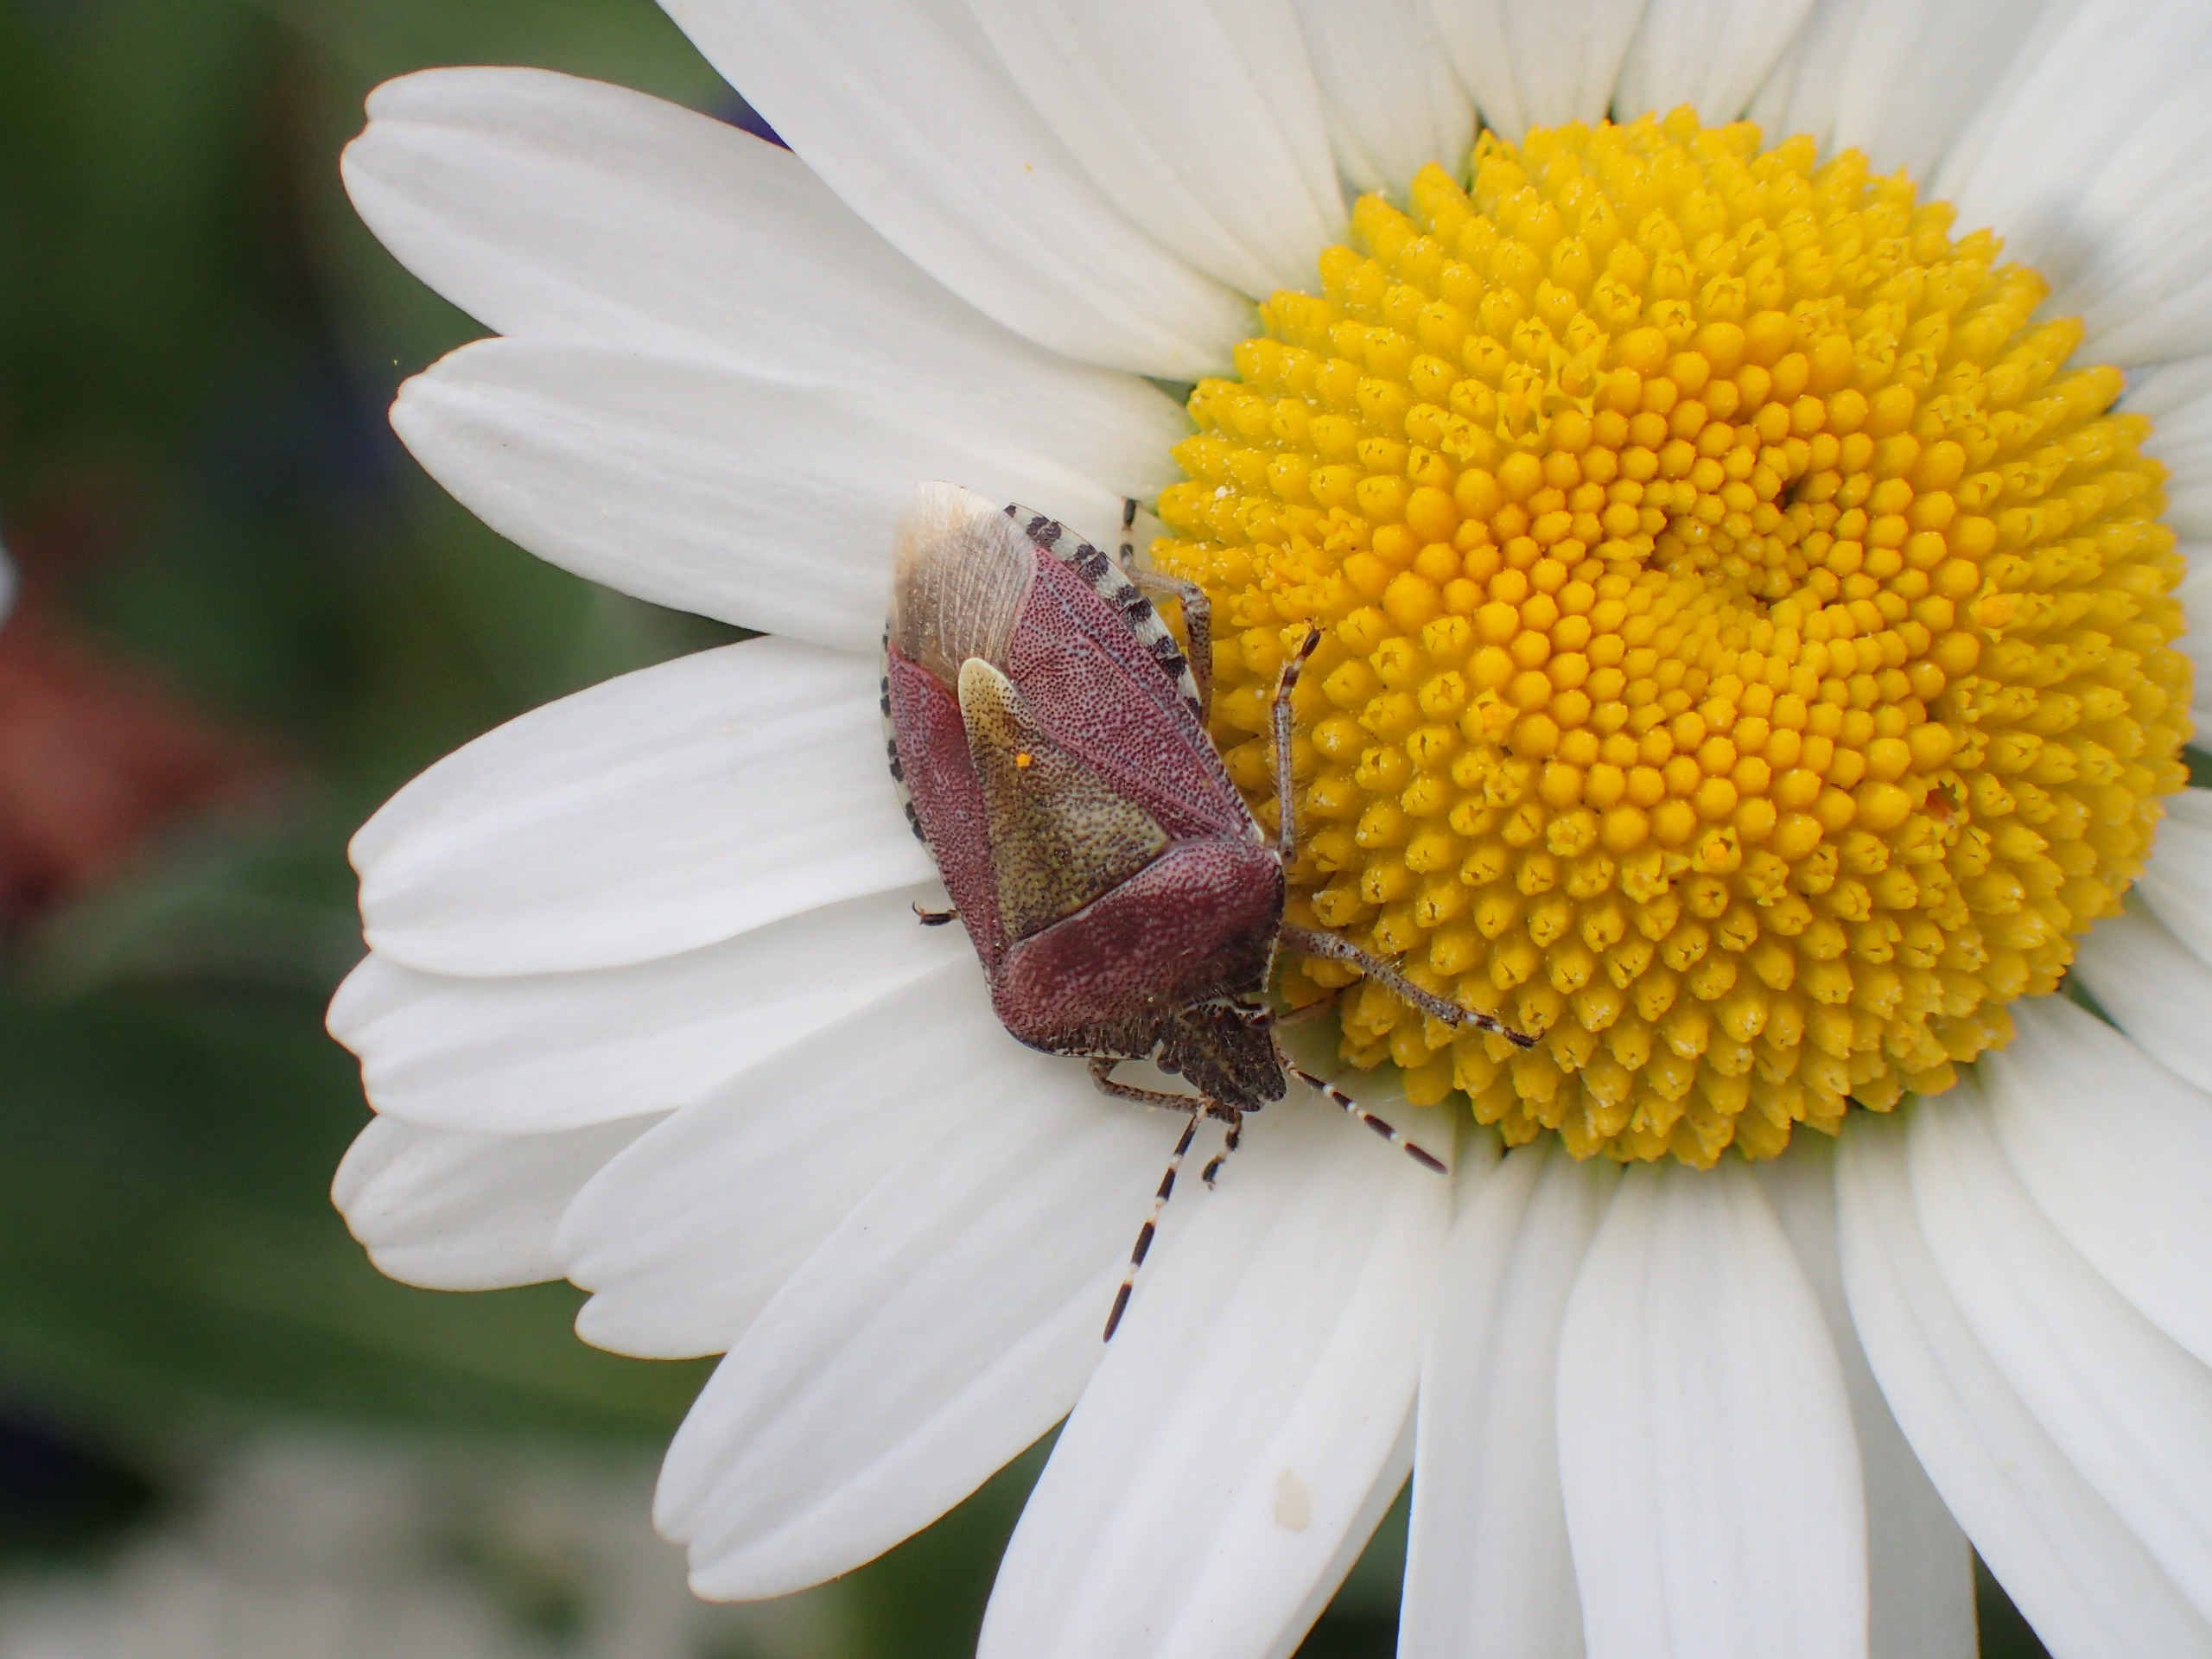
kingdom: Animalia
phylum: Arthropoda
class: Insecta
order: Hemiptera
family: Pentatomidae
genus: Dolycoris
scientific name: Dolycoris baccarum
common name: Almindelig bærtæge
